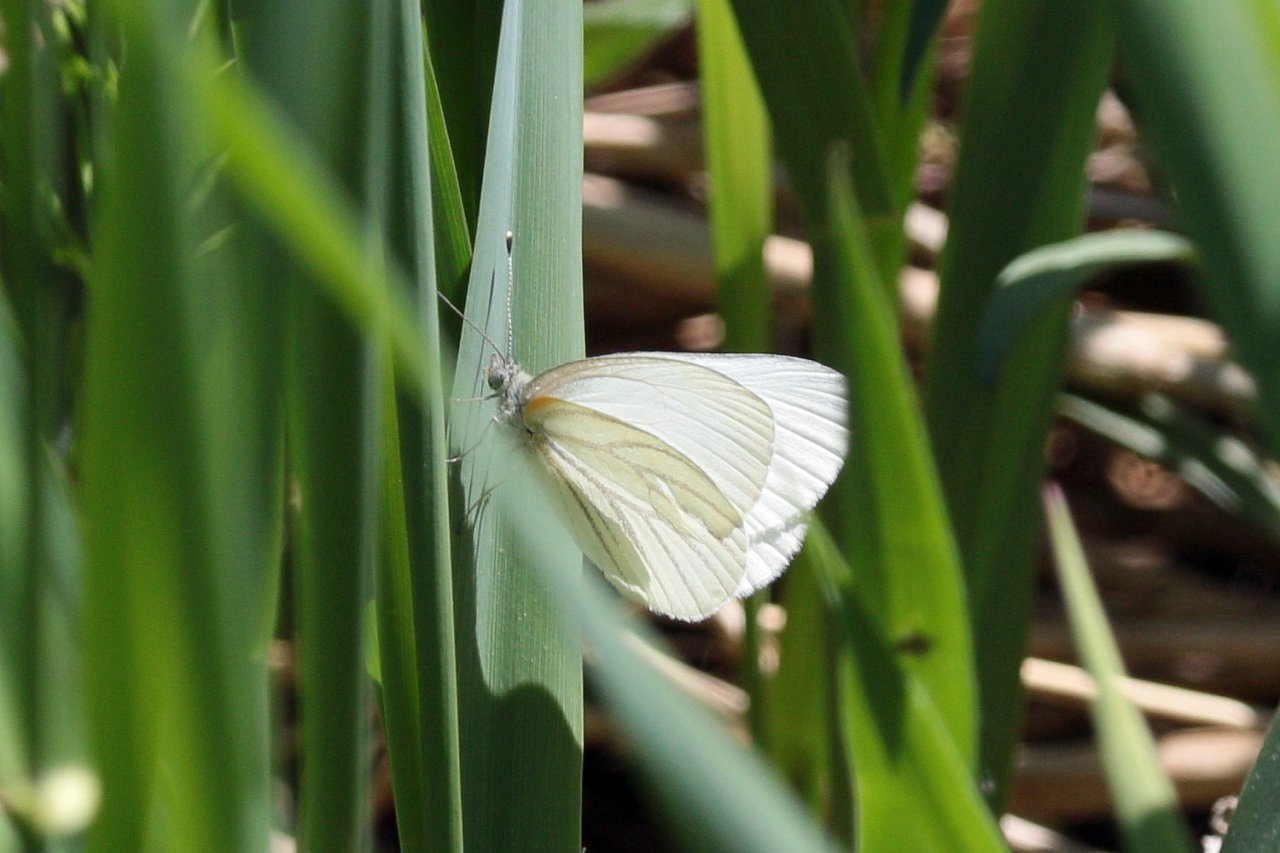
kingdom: Animalia
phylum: Arthropoda
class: Insecta
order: Lepidoptera
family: Pieridae
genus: Pieris
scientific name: Pieris oleracea
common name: Mustard White
